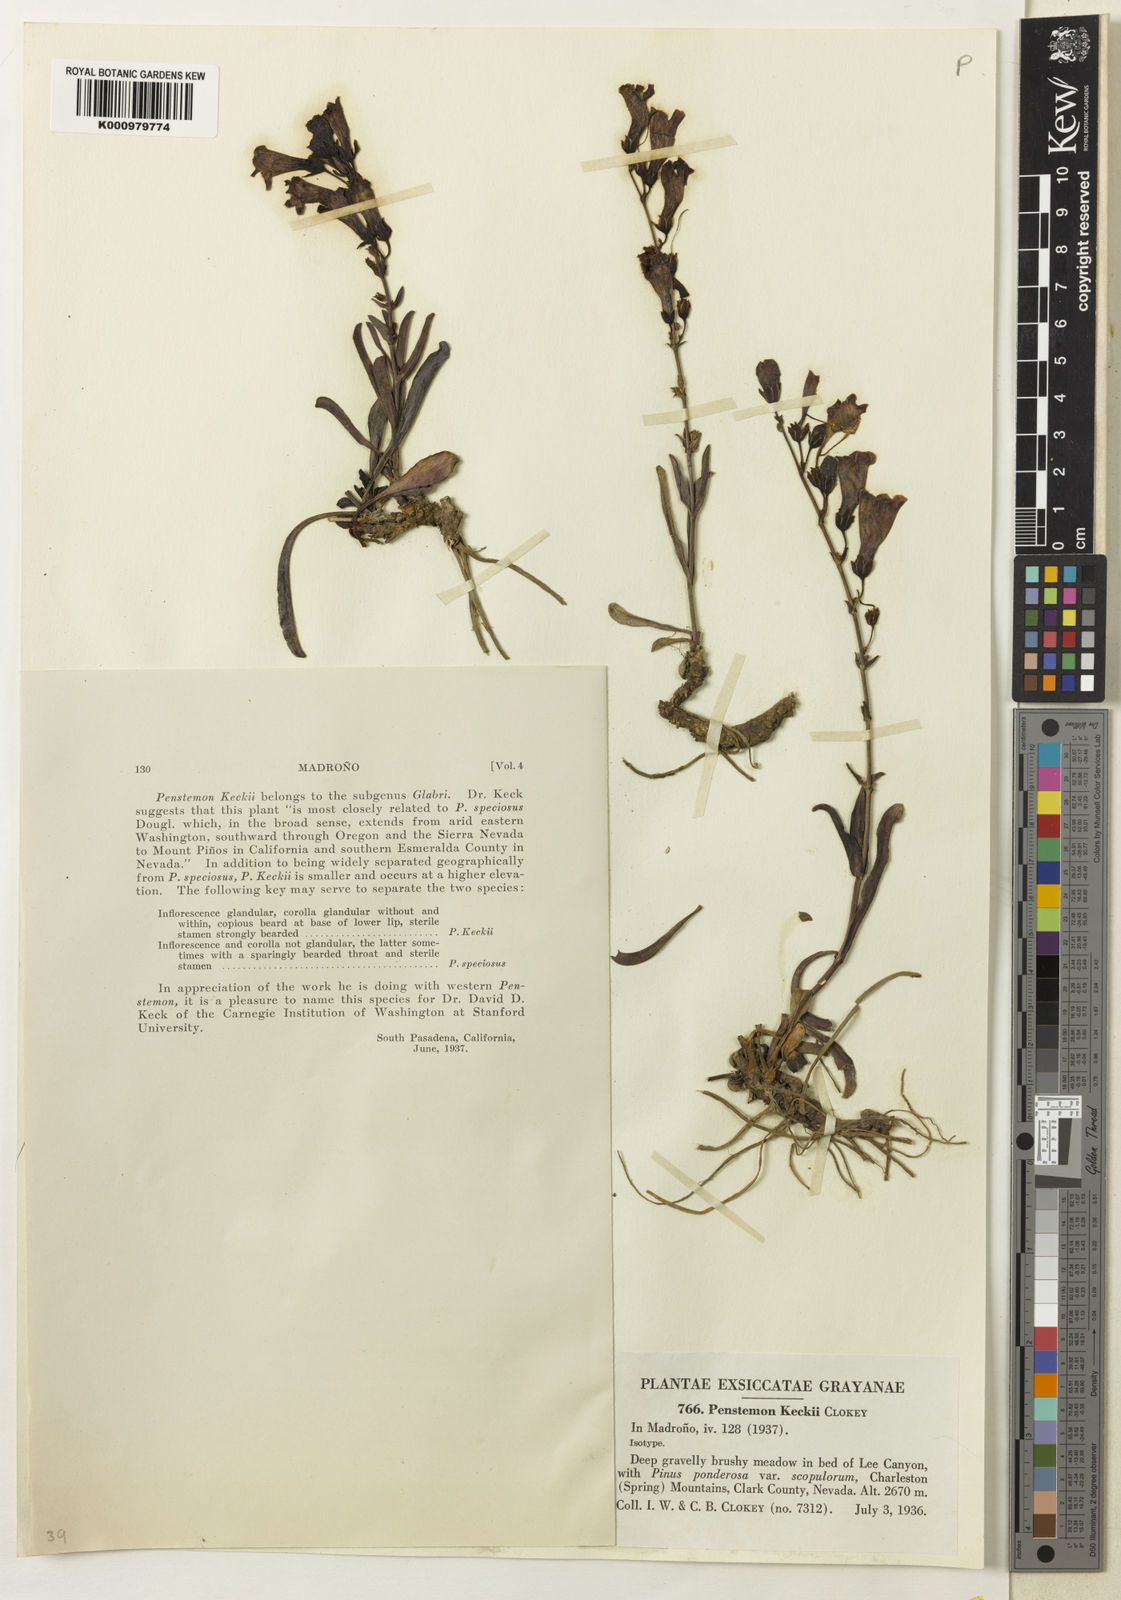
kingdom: Plantae
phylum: Tracheophyta
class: Magnoliopsida
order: Lamiales
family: Plantaginaceae
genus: Penstemon
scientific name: Penstemon leiophyllus
